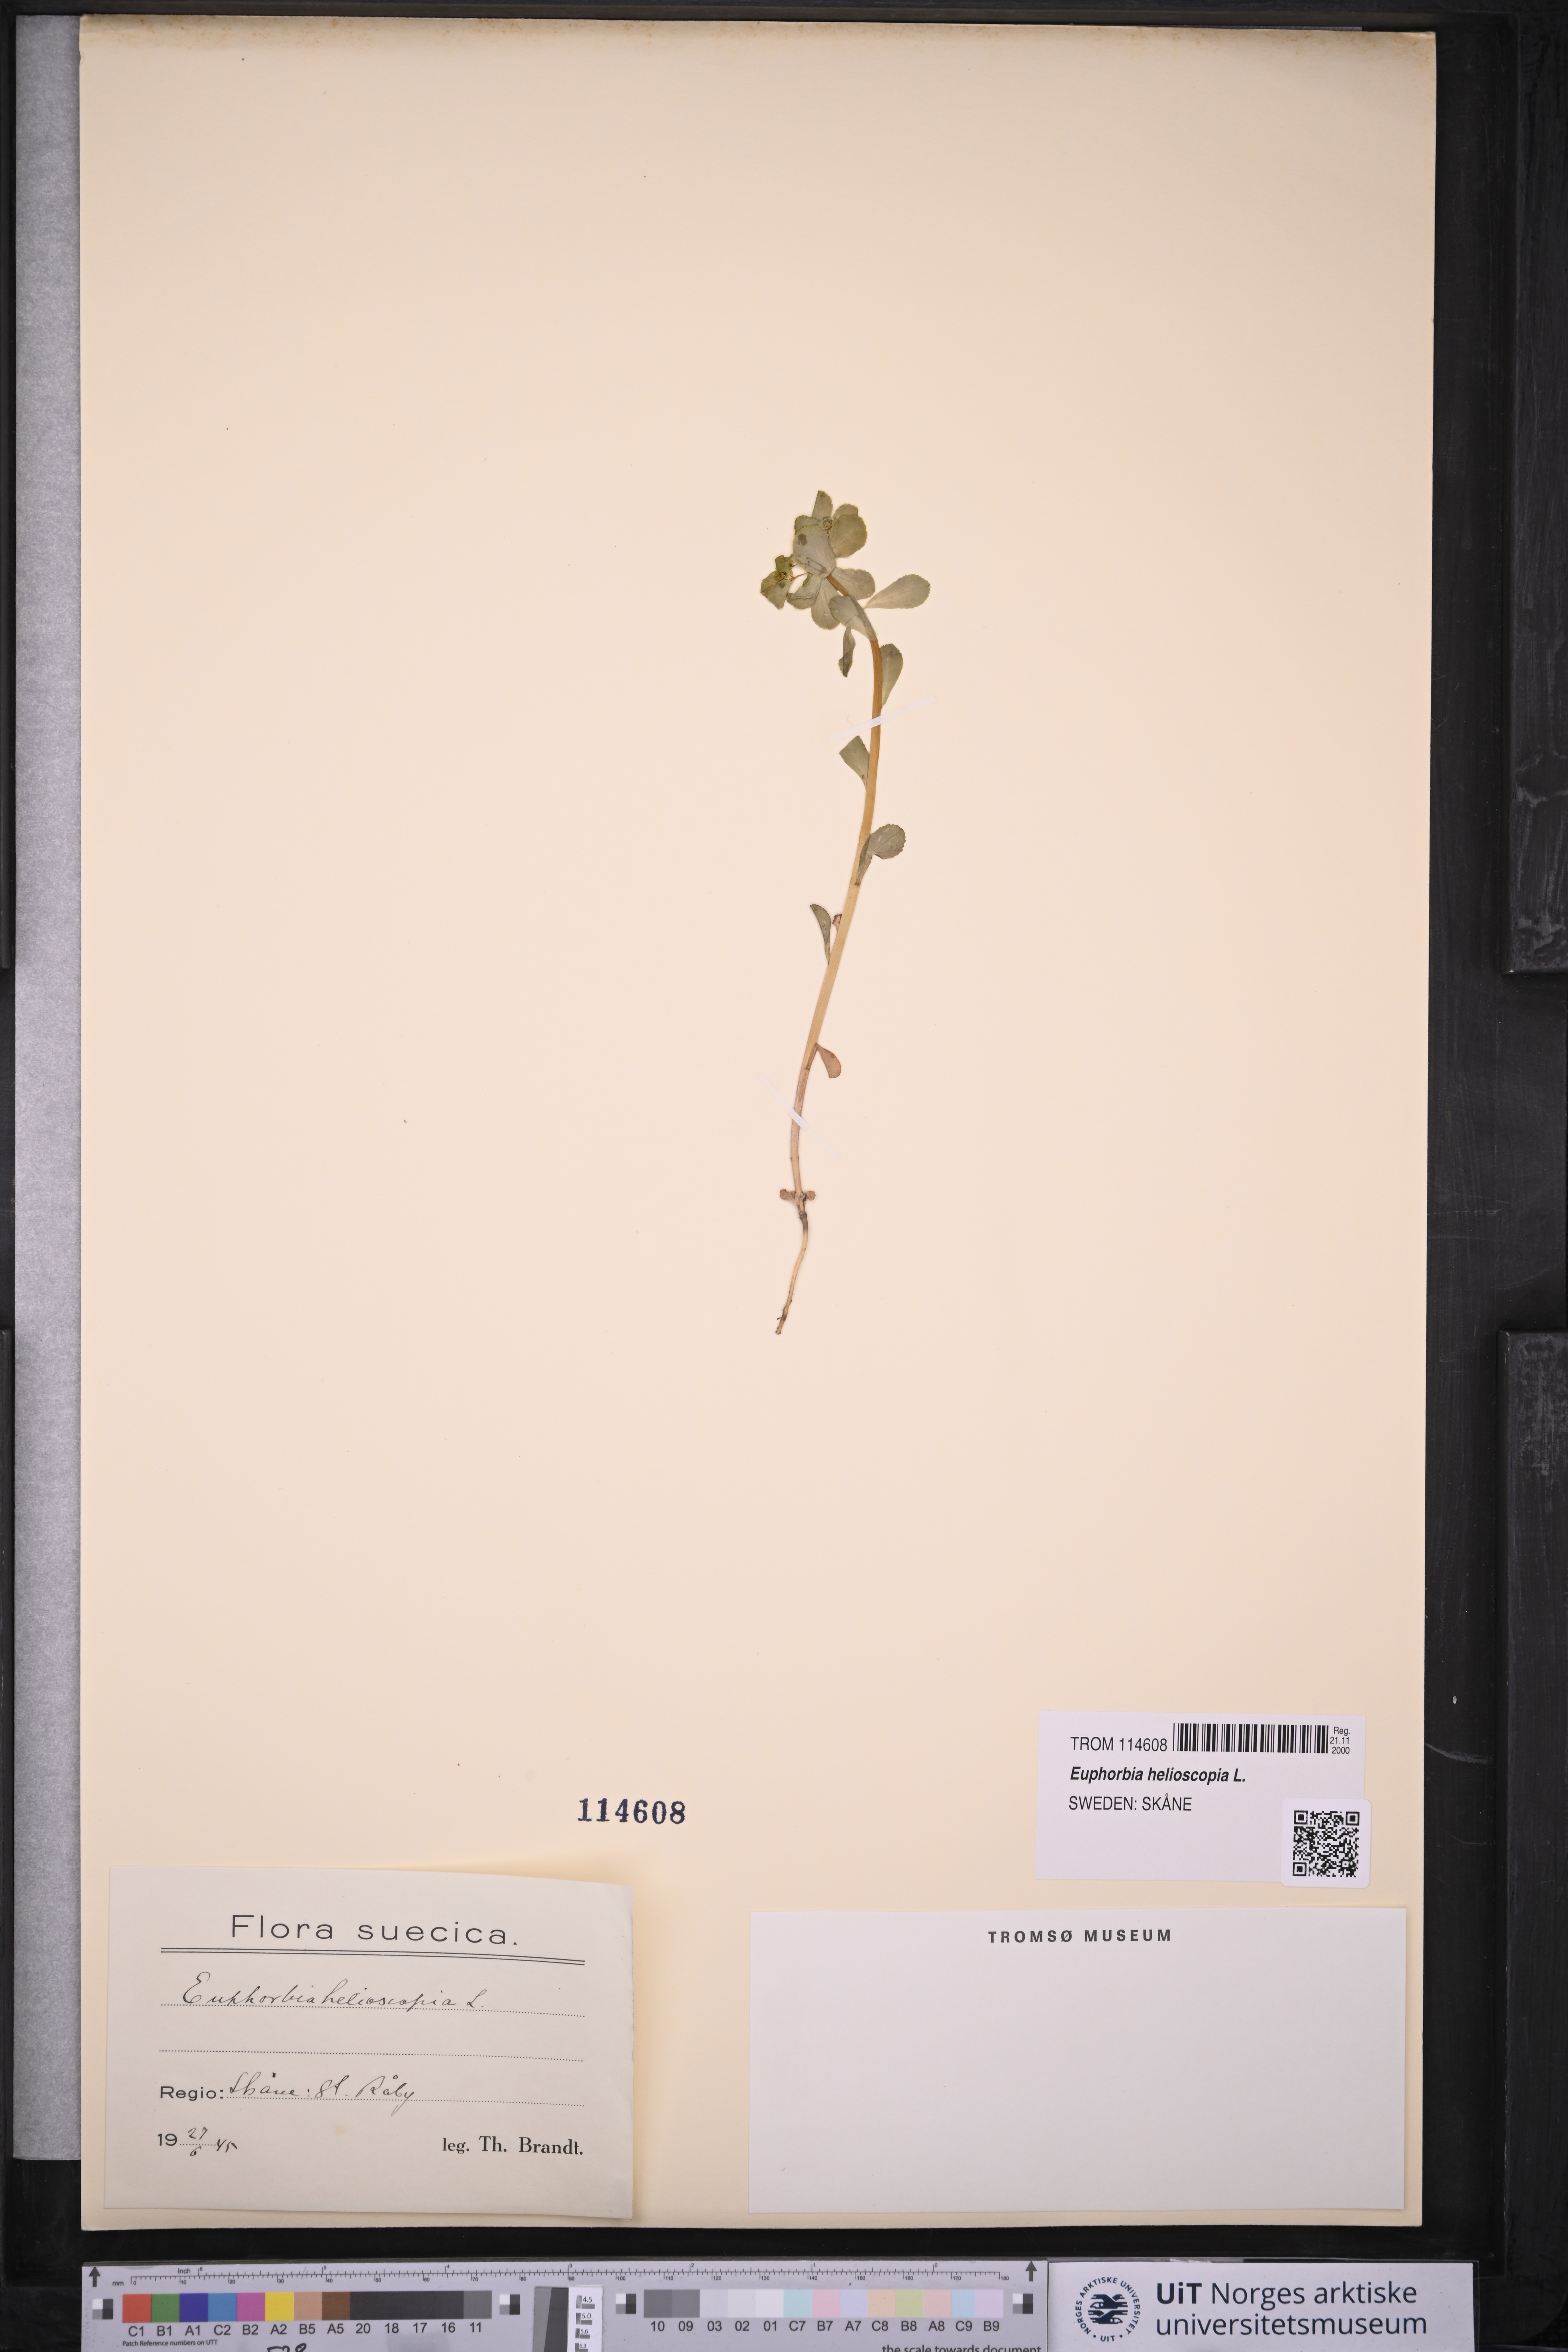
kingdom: Plantae
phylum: Tracheophyta
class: Magnoliopsida
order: Malpighiales
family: Euphorbiaceae
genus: Euphorbia
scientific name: Euphorbia helioscopia
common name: Sun spurge
